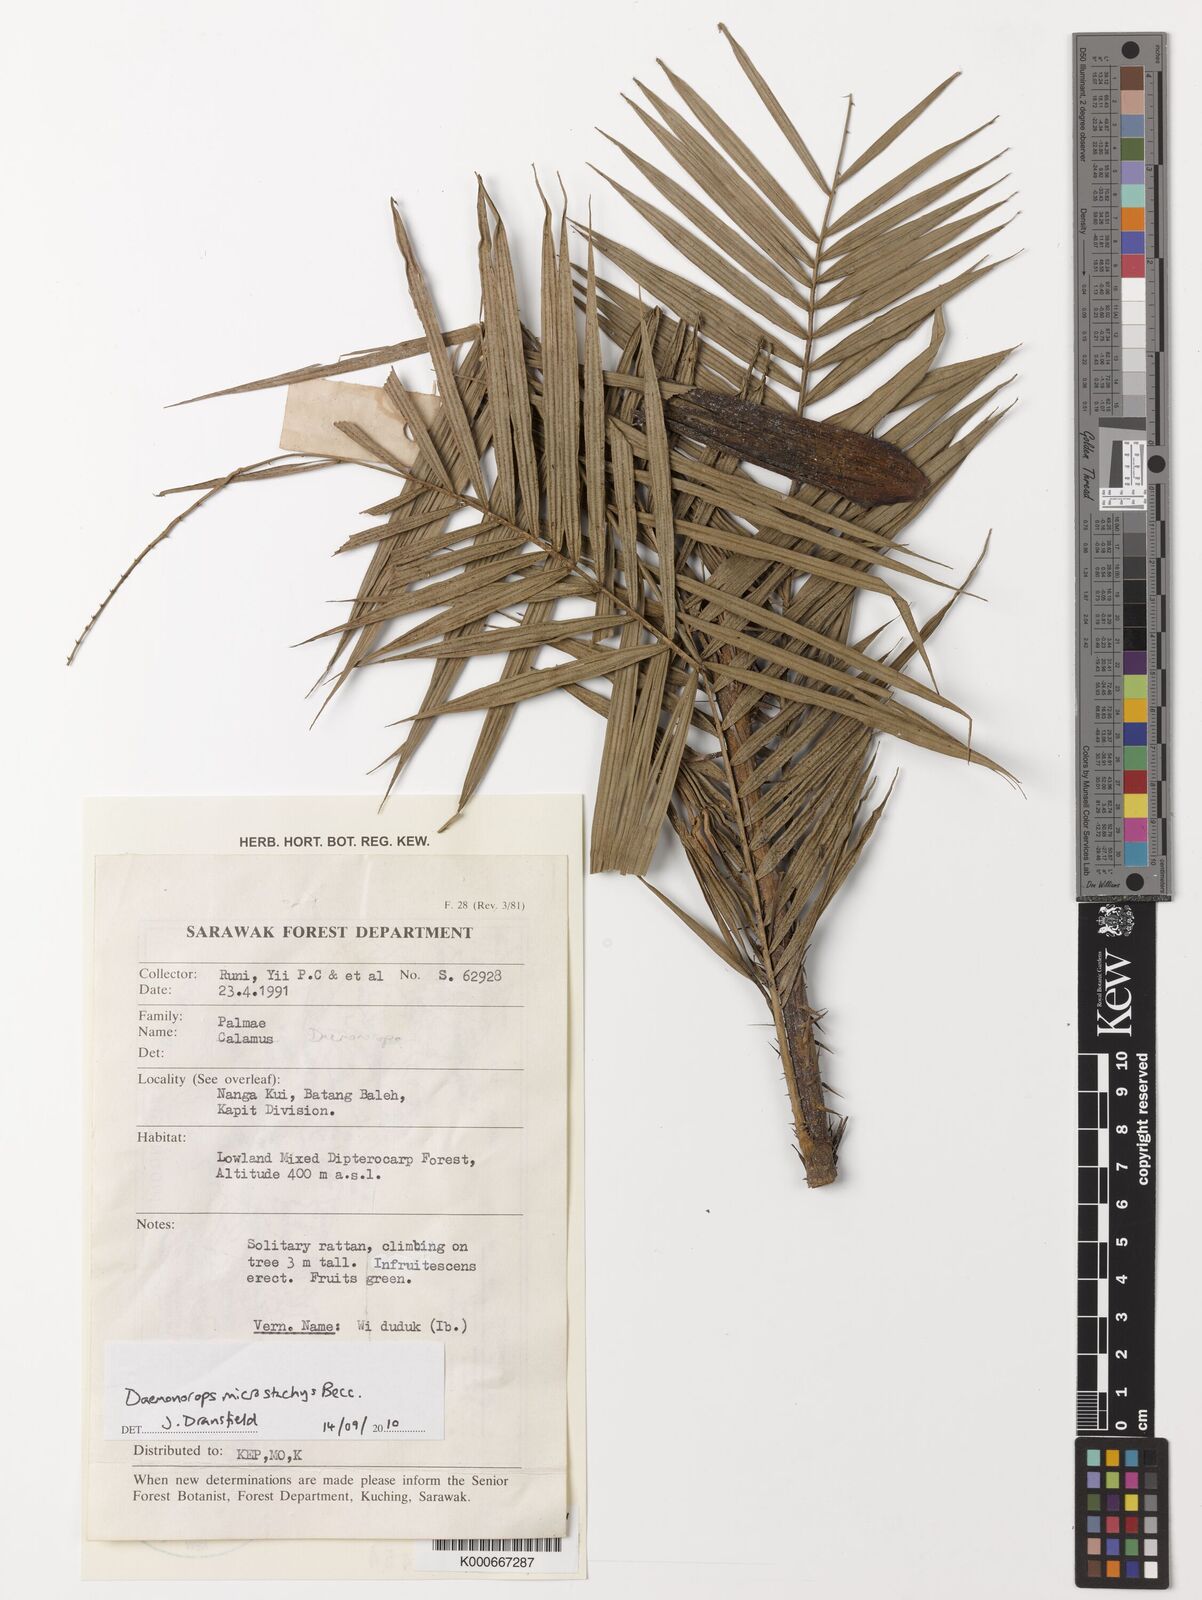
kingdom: Plantae
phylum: Tracheophyta
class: Liliopsida
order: Arecales
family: Arecaceae
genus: Calamus
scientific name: Calamus kunstleri
